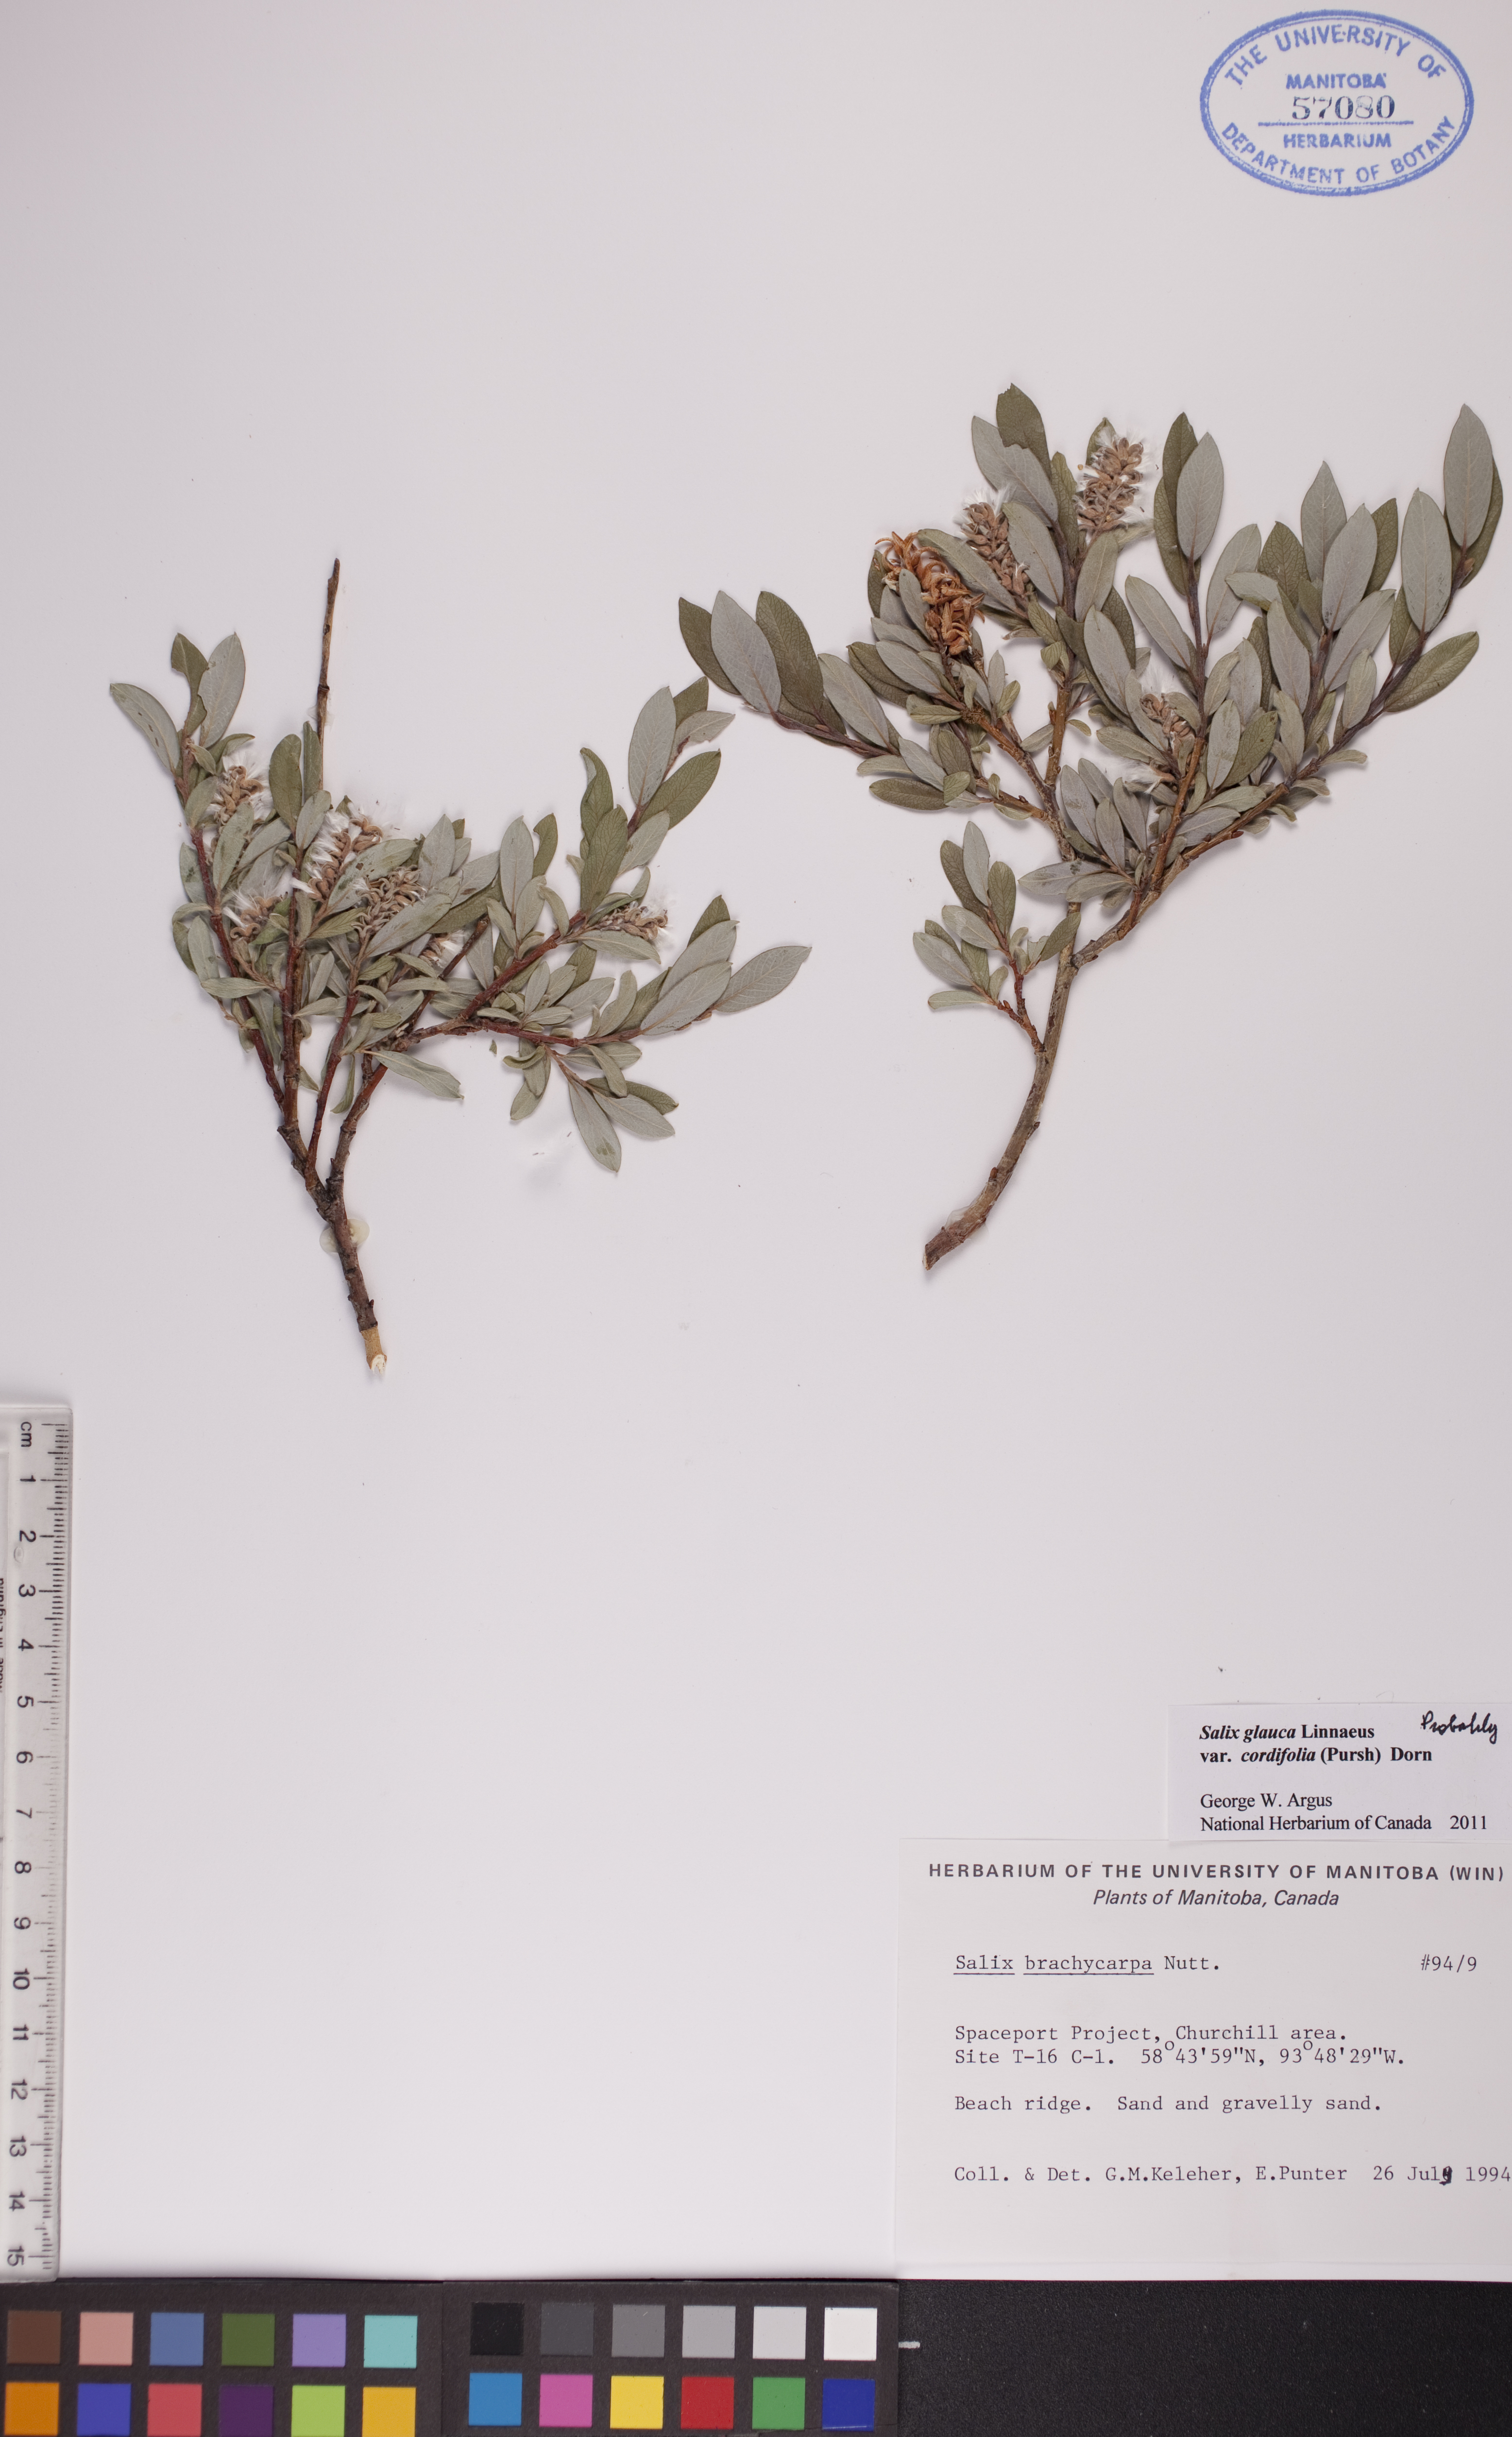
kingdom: Plantae
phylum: Tracheophyta
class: Magnoliopsida
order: Malpighiales
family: Salicaceae
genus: Salix
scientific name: Salix glauca
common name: Glaucous willow
